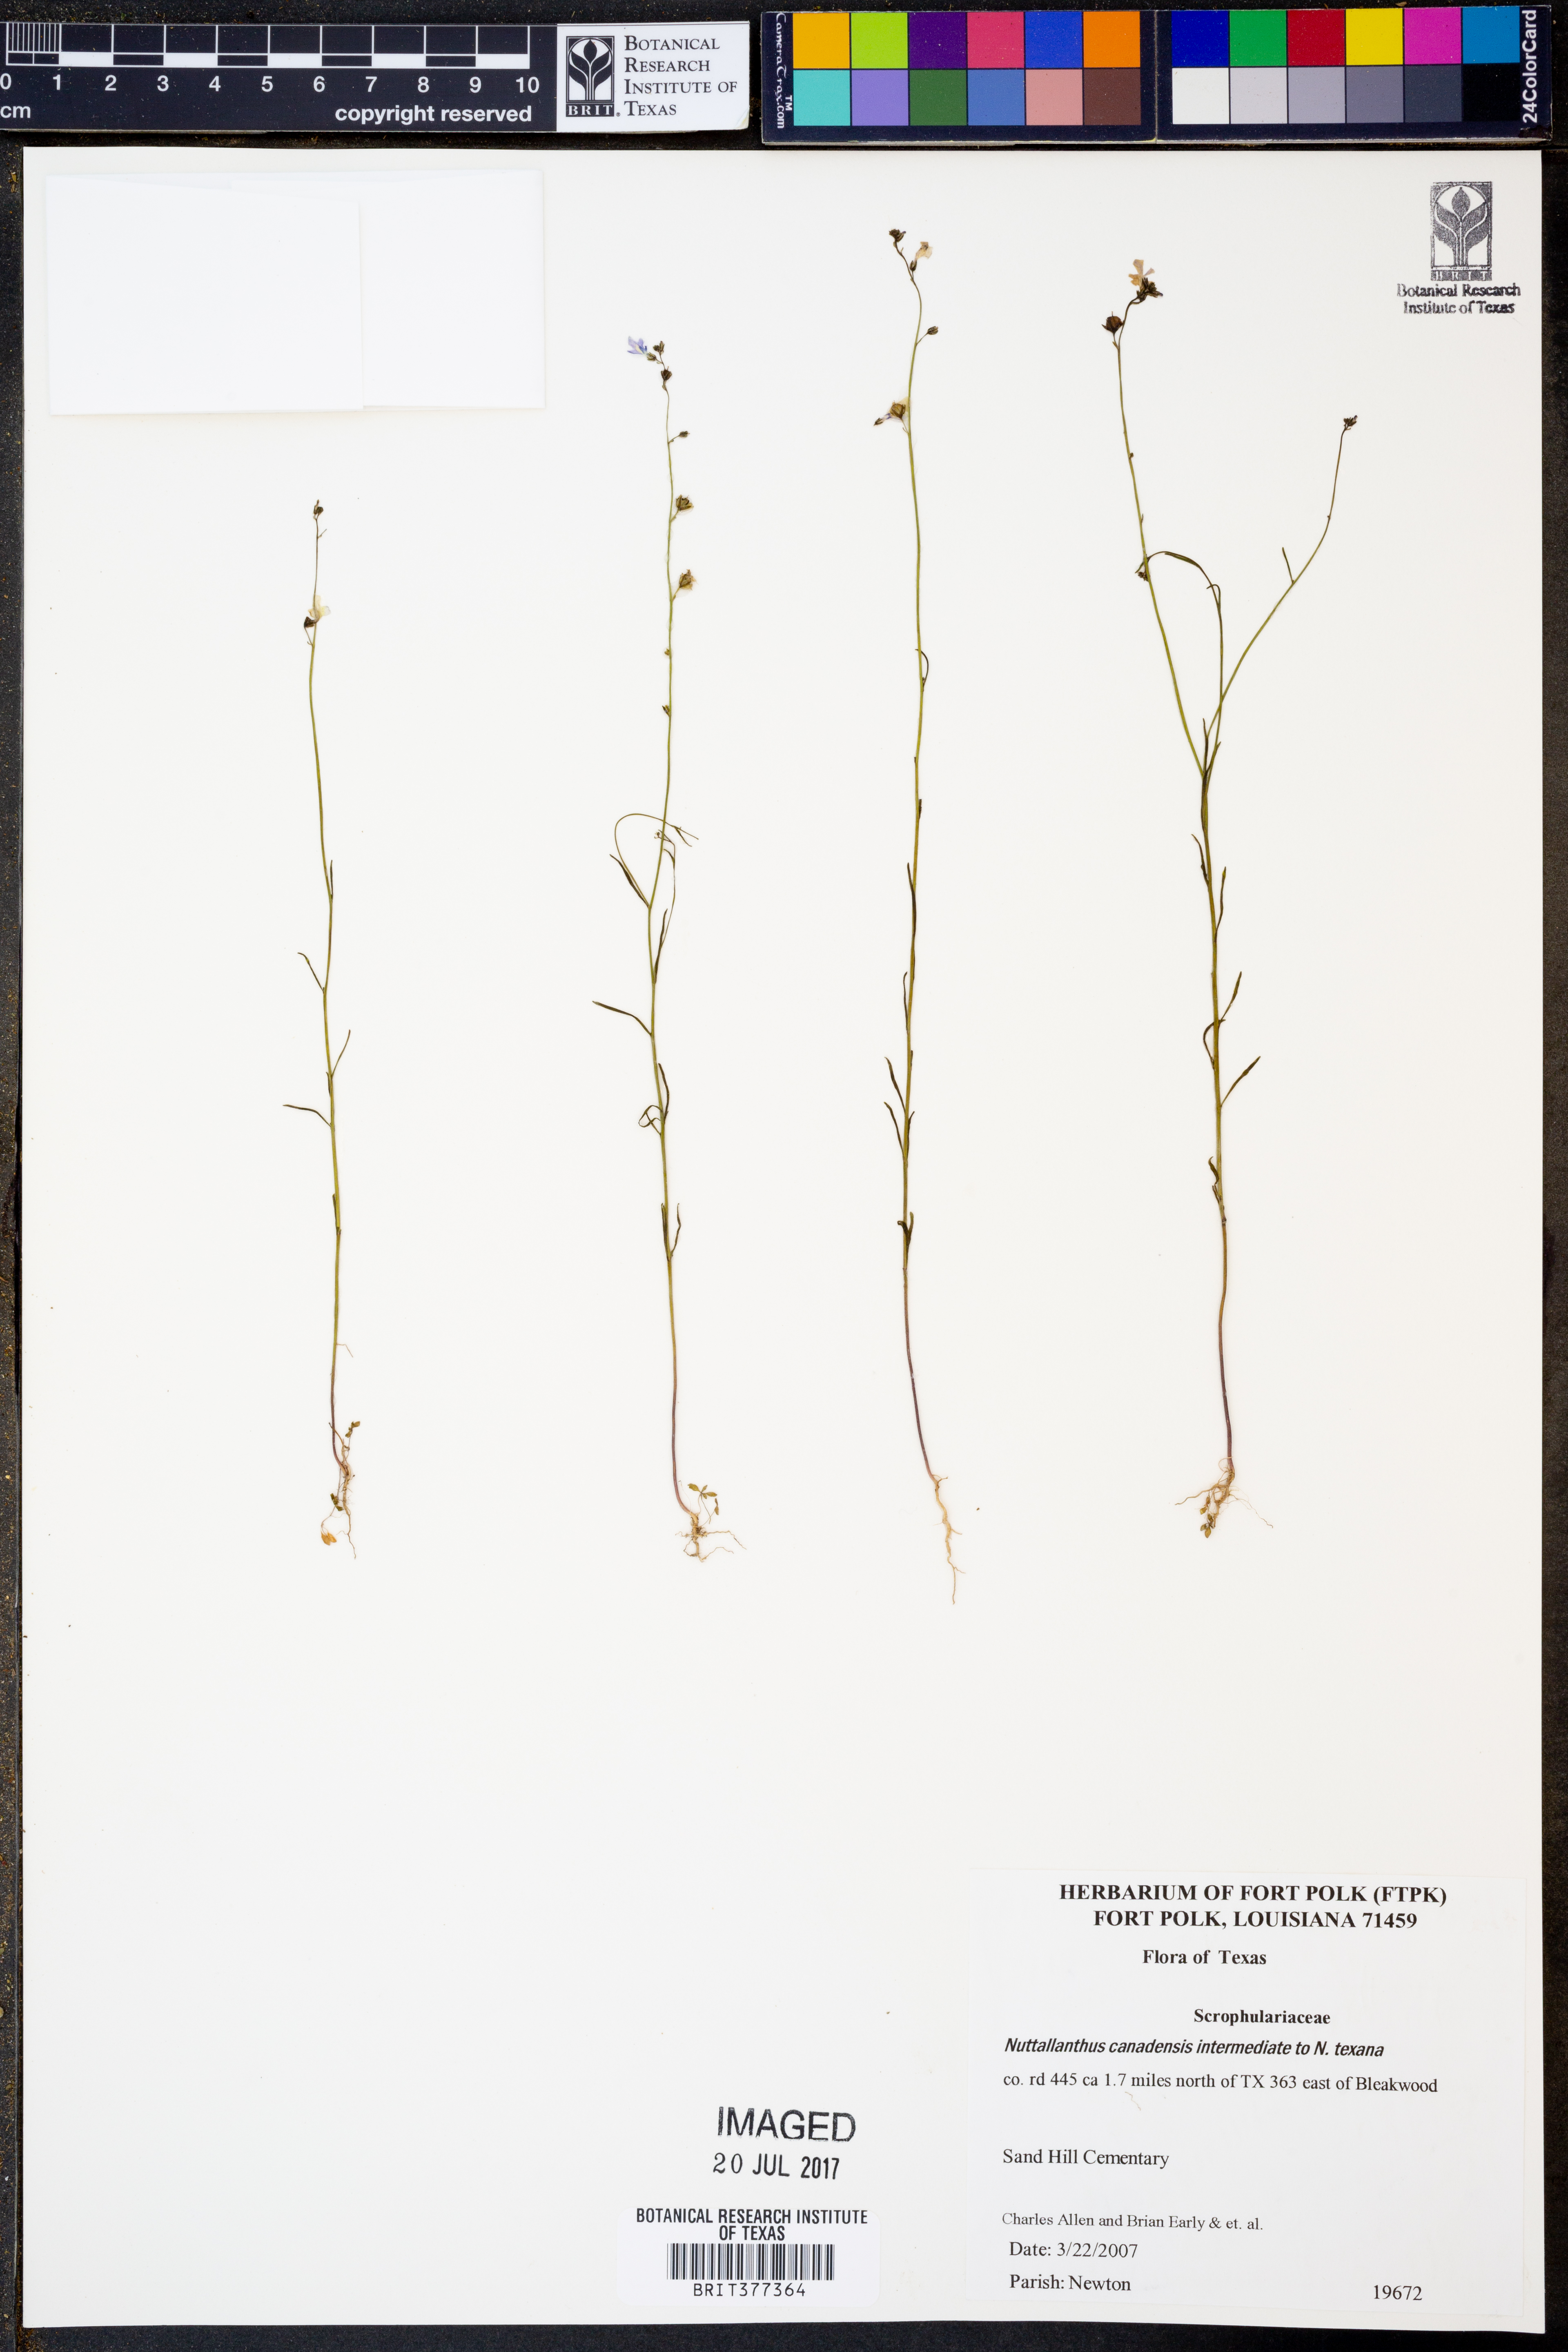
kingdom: Plantae
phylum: Tracheophyta
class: Magnoliopsida
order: Lamiales
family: Plantaginaceae
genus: Nuttallanthus
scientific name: Nuttallanthus canadensis
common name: Blue toadflax
